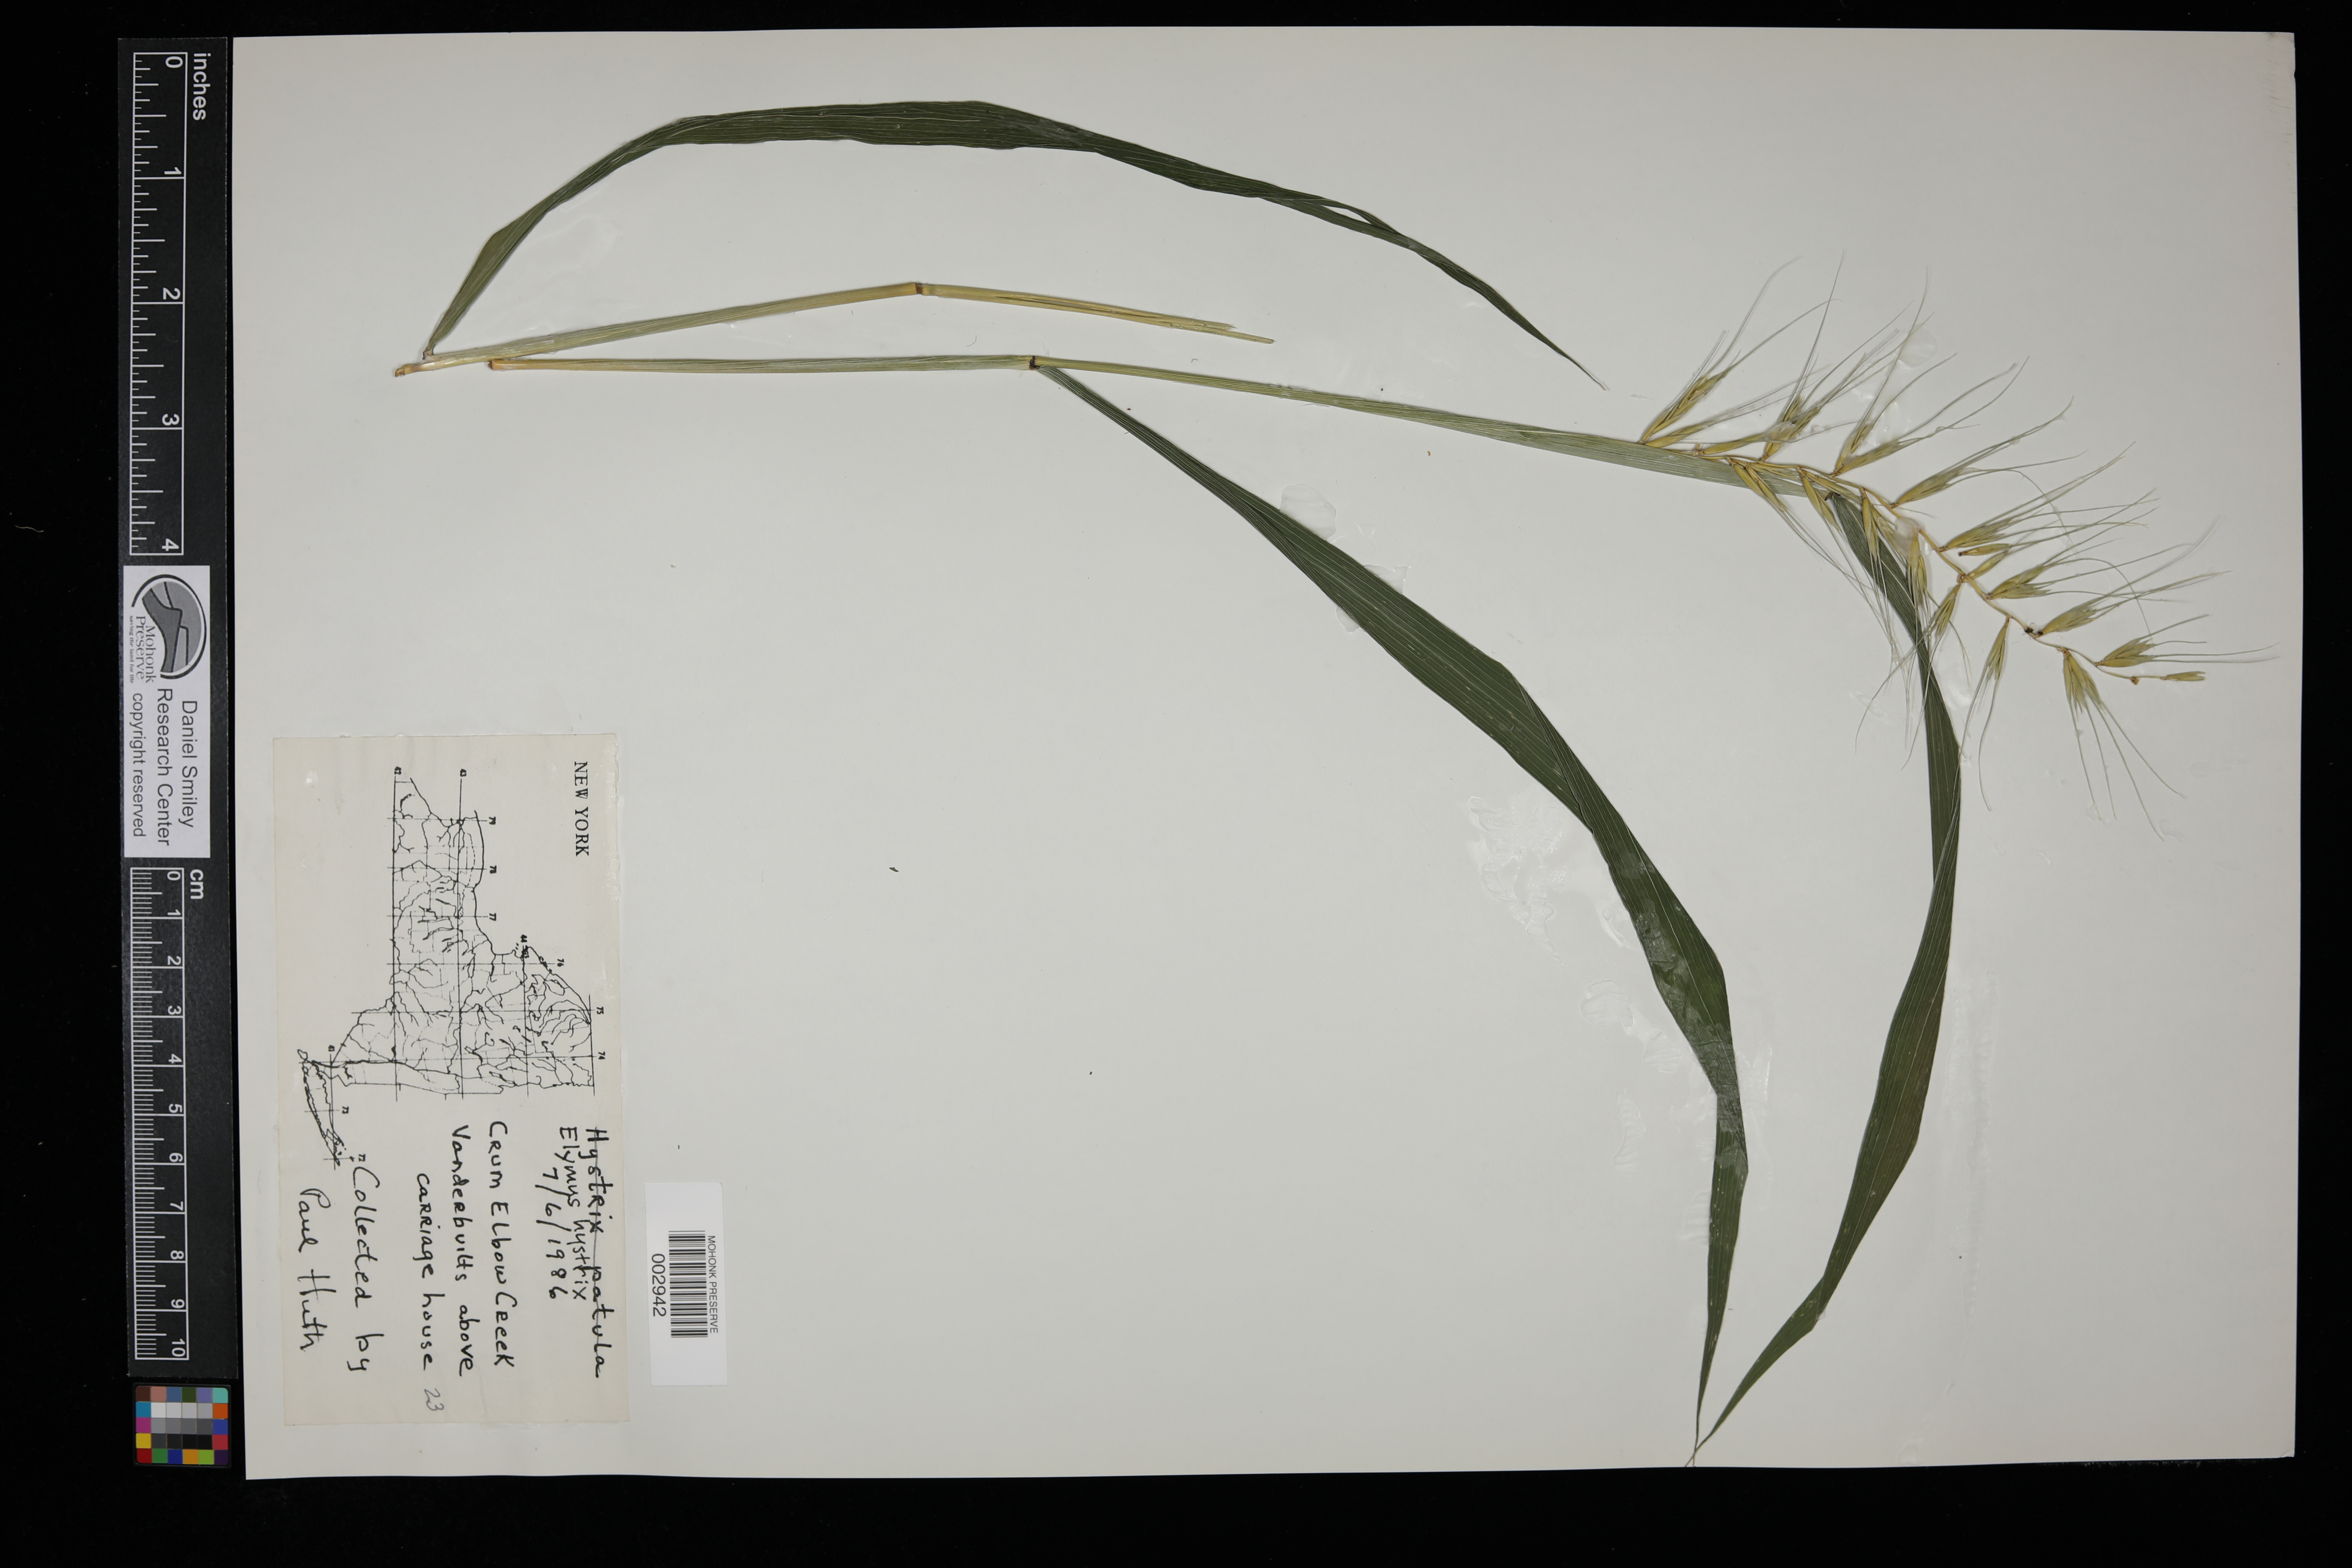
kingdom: Plantae
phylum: Tracheophyta
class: Liliopsida
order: Poales
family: Poaceae
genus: Elymus
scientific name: Elymus hystrix
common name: Bottlebrush grass
